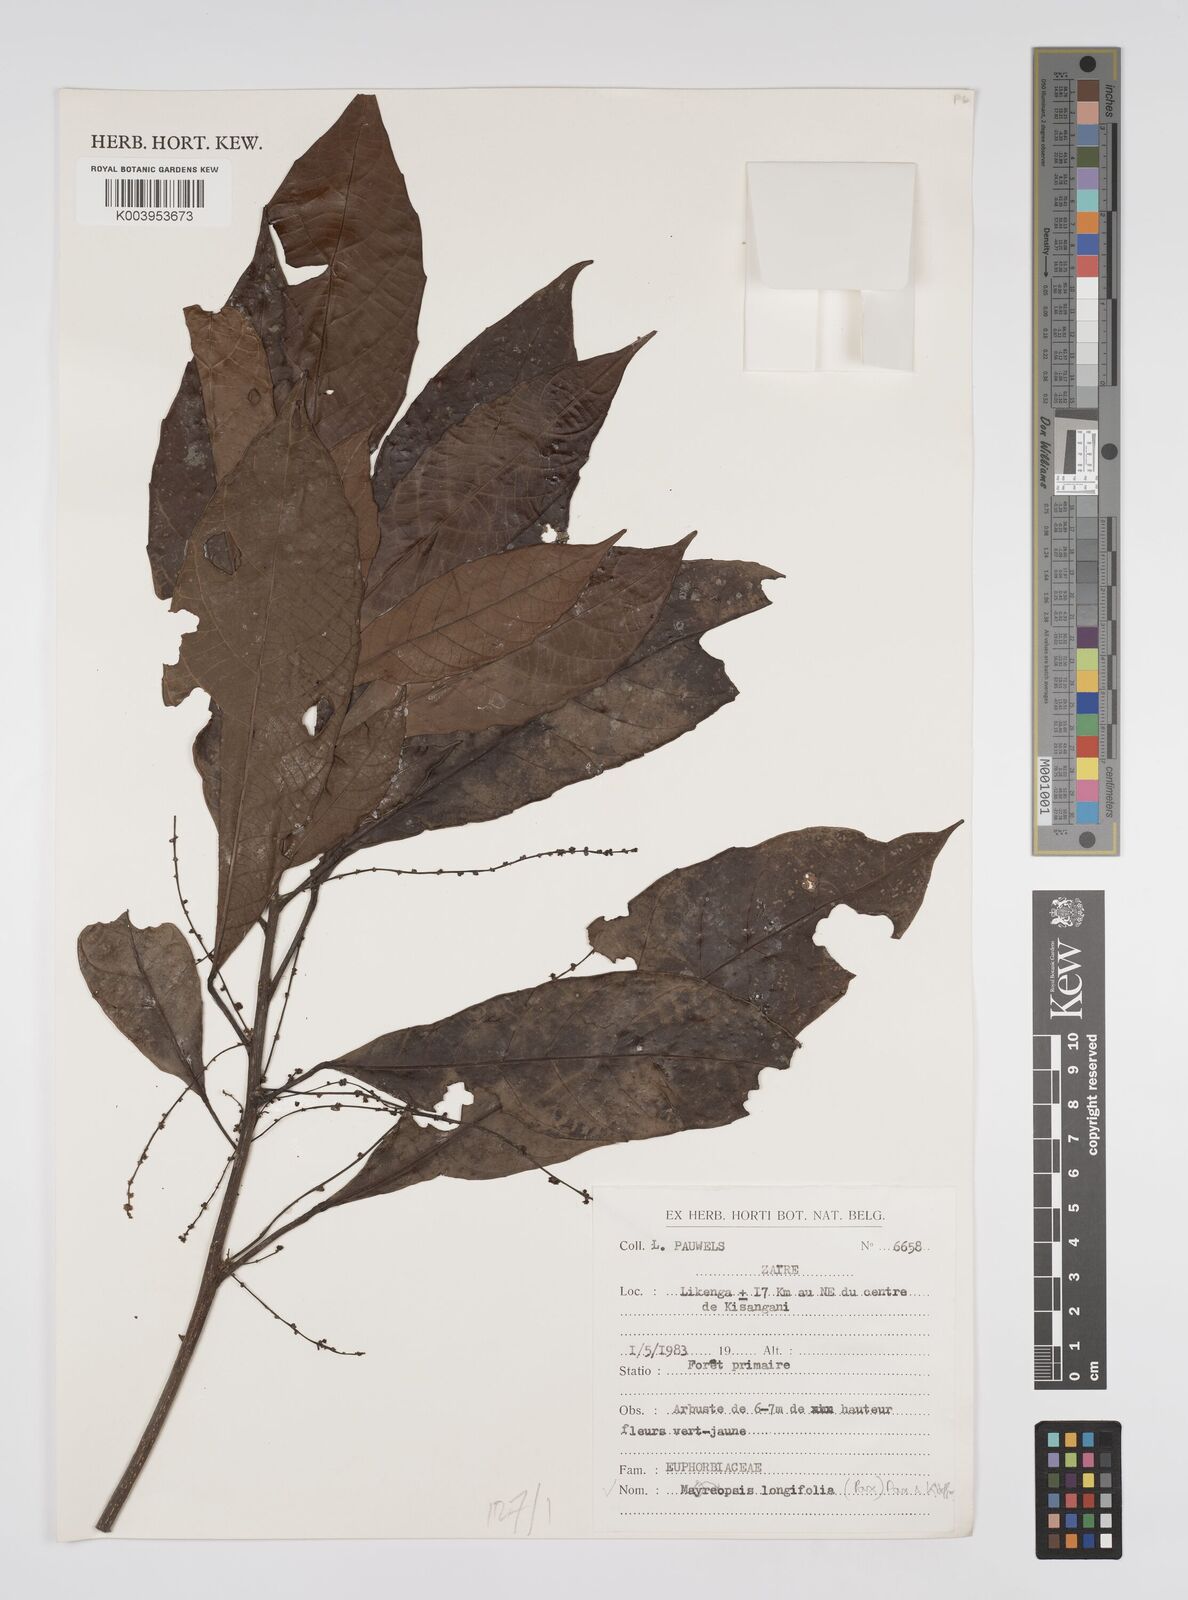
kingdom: Plantae
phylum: Tracheophyta
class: Magnoliopsida
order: Malpighiales
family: Euphorbiaceae
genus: Mareyopsis
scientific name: Mareyopsis longifolia
